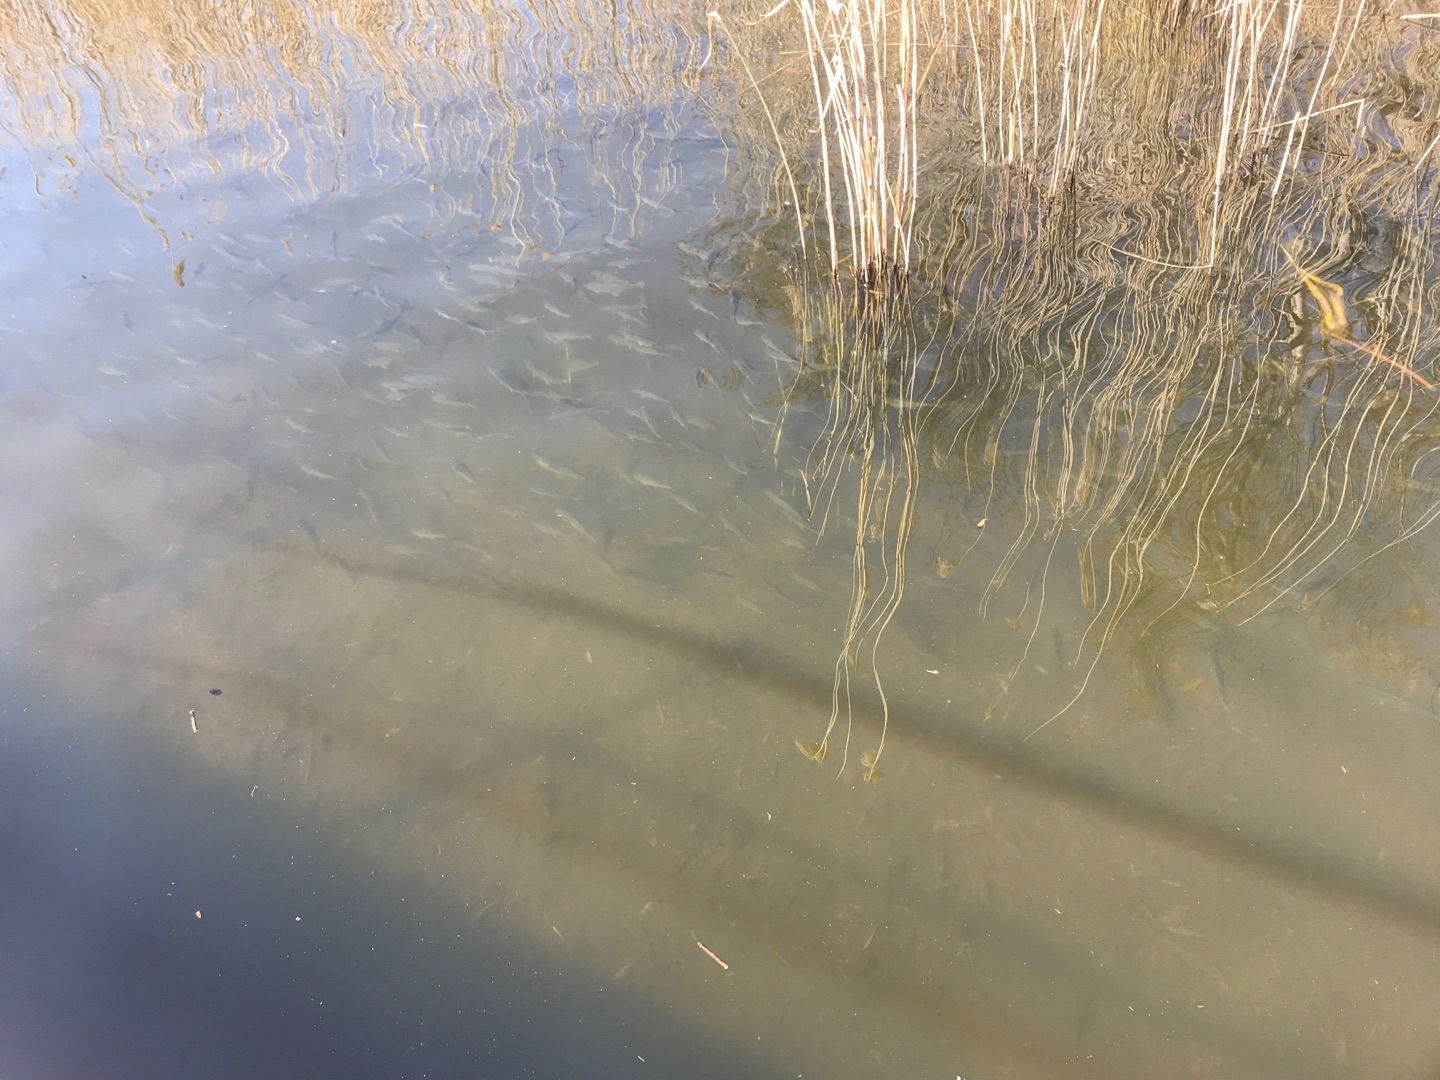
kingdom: Animalia
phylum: Chordata
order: Cypriniformes
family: Cyprinidae
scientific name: Cyprinidae
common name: Karpefamilien
